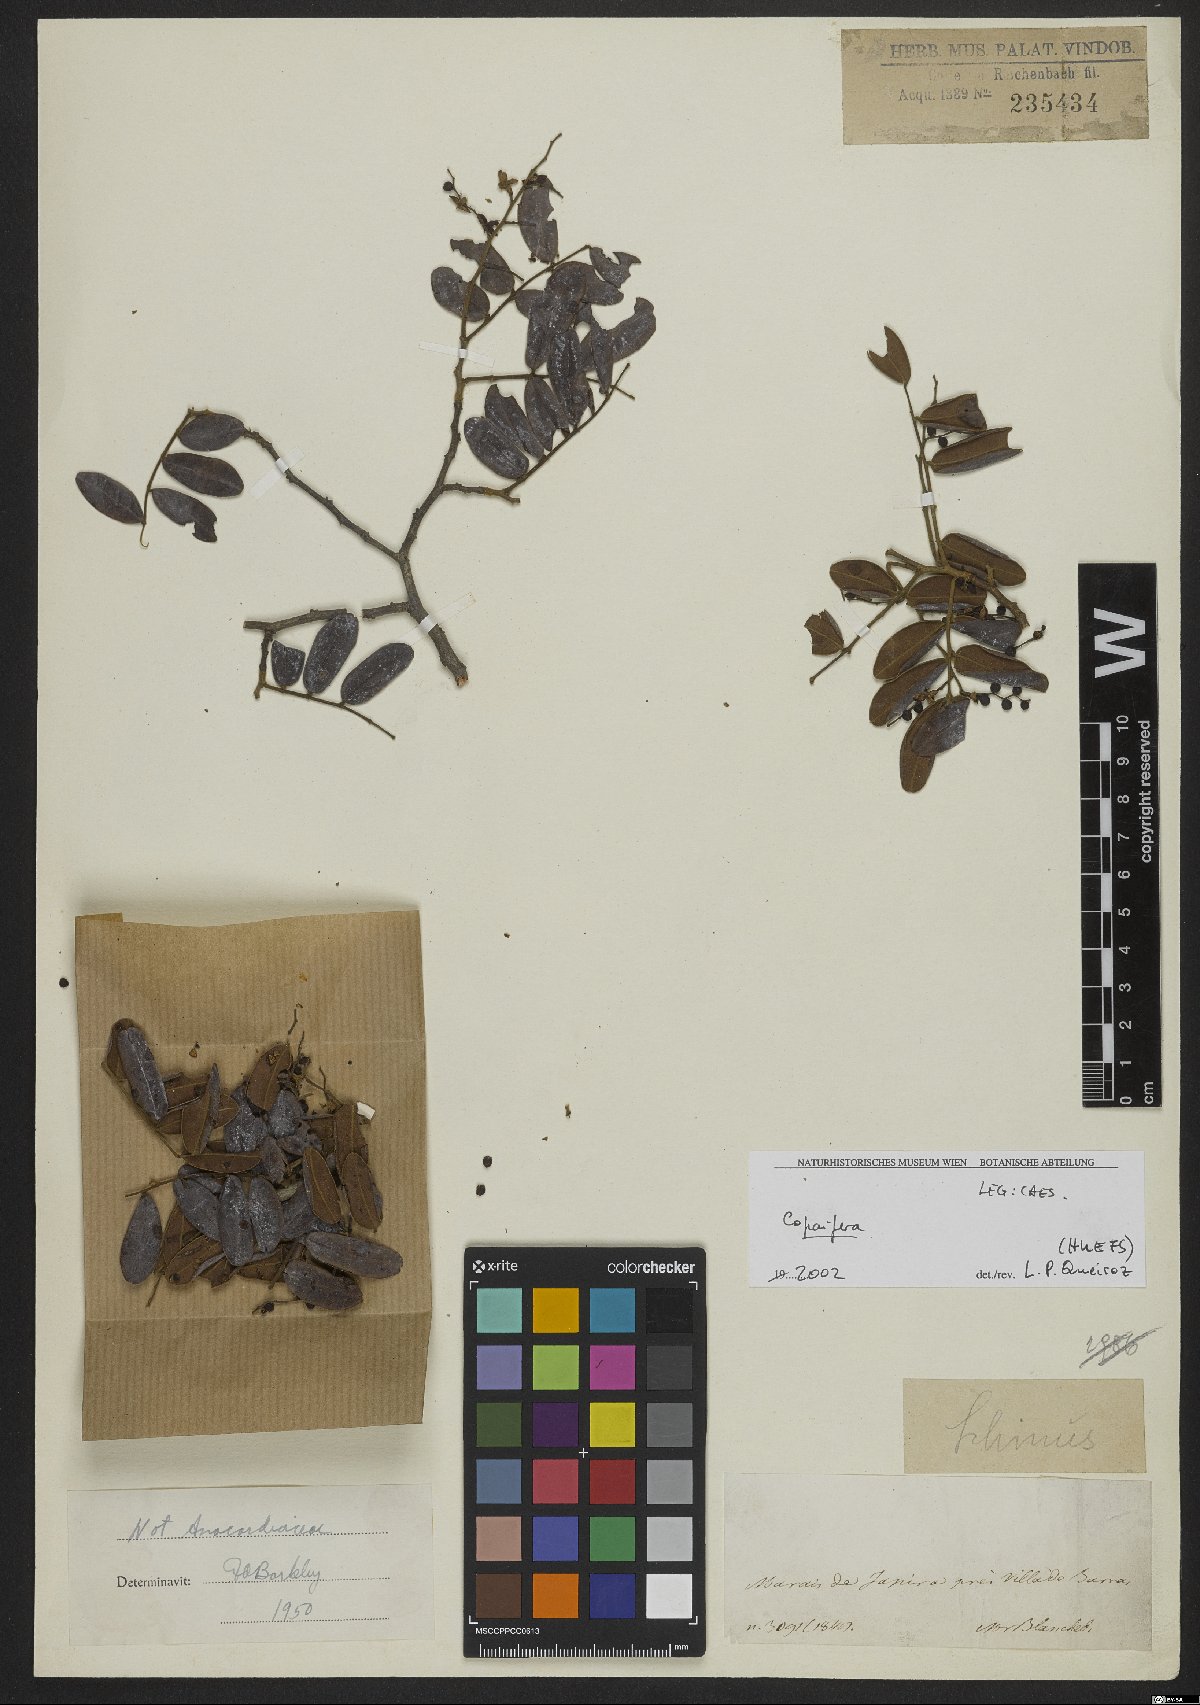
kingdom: Plantae
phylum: Tracheophyta
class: Magnoliopsida
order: Fabales
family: Fabaceae
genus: Copaifera
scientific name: Copaifera
